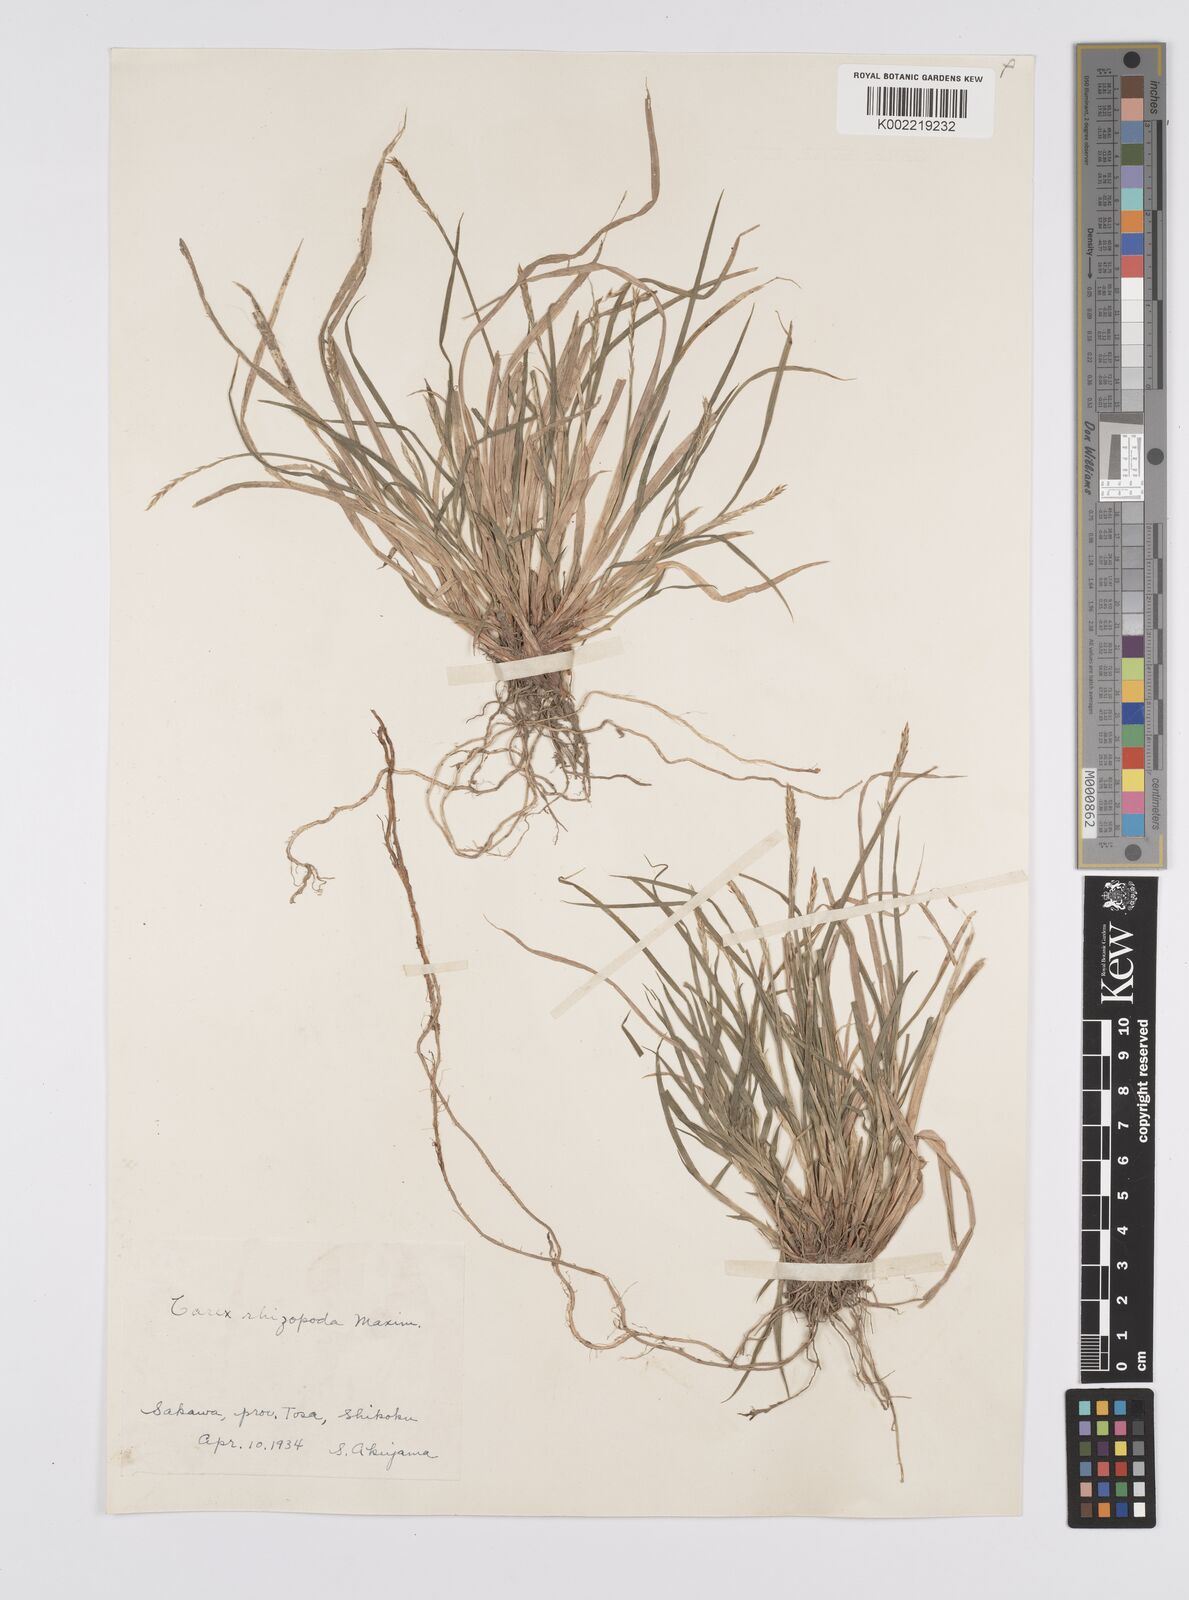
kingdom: Plantae
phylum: Tracheophyta
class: Liliopsida
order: Poales
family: Cyperaceae
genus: Carex
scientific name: Carex rhizopoda
